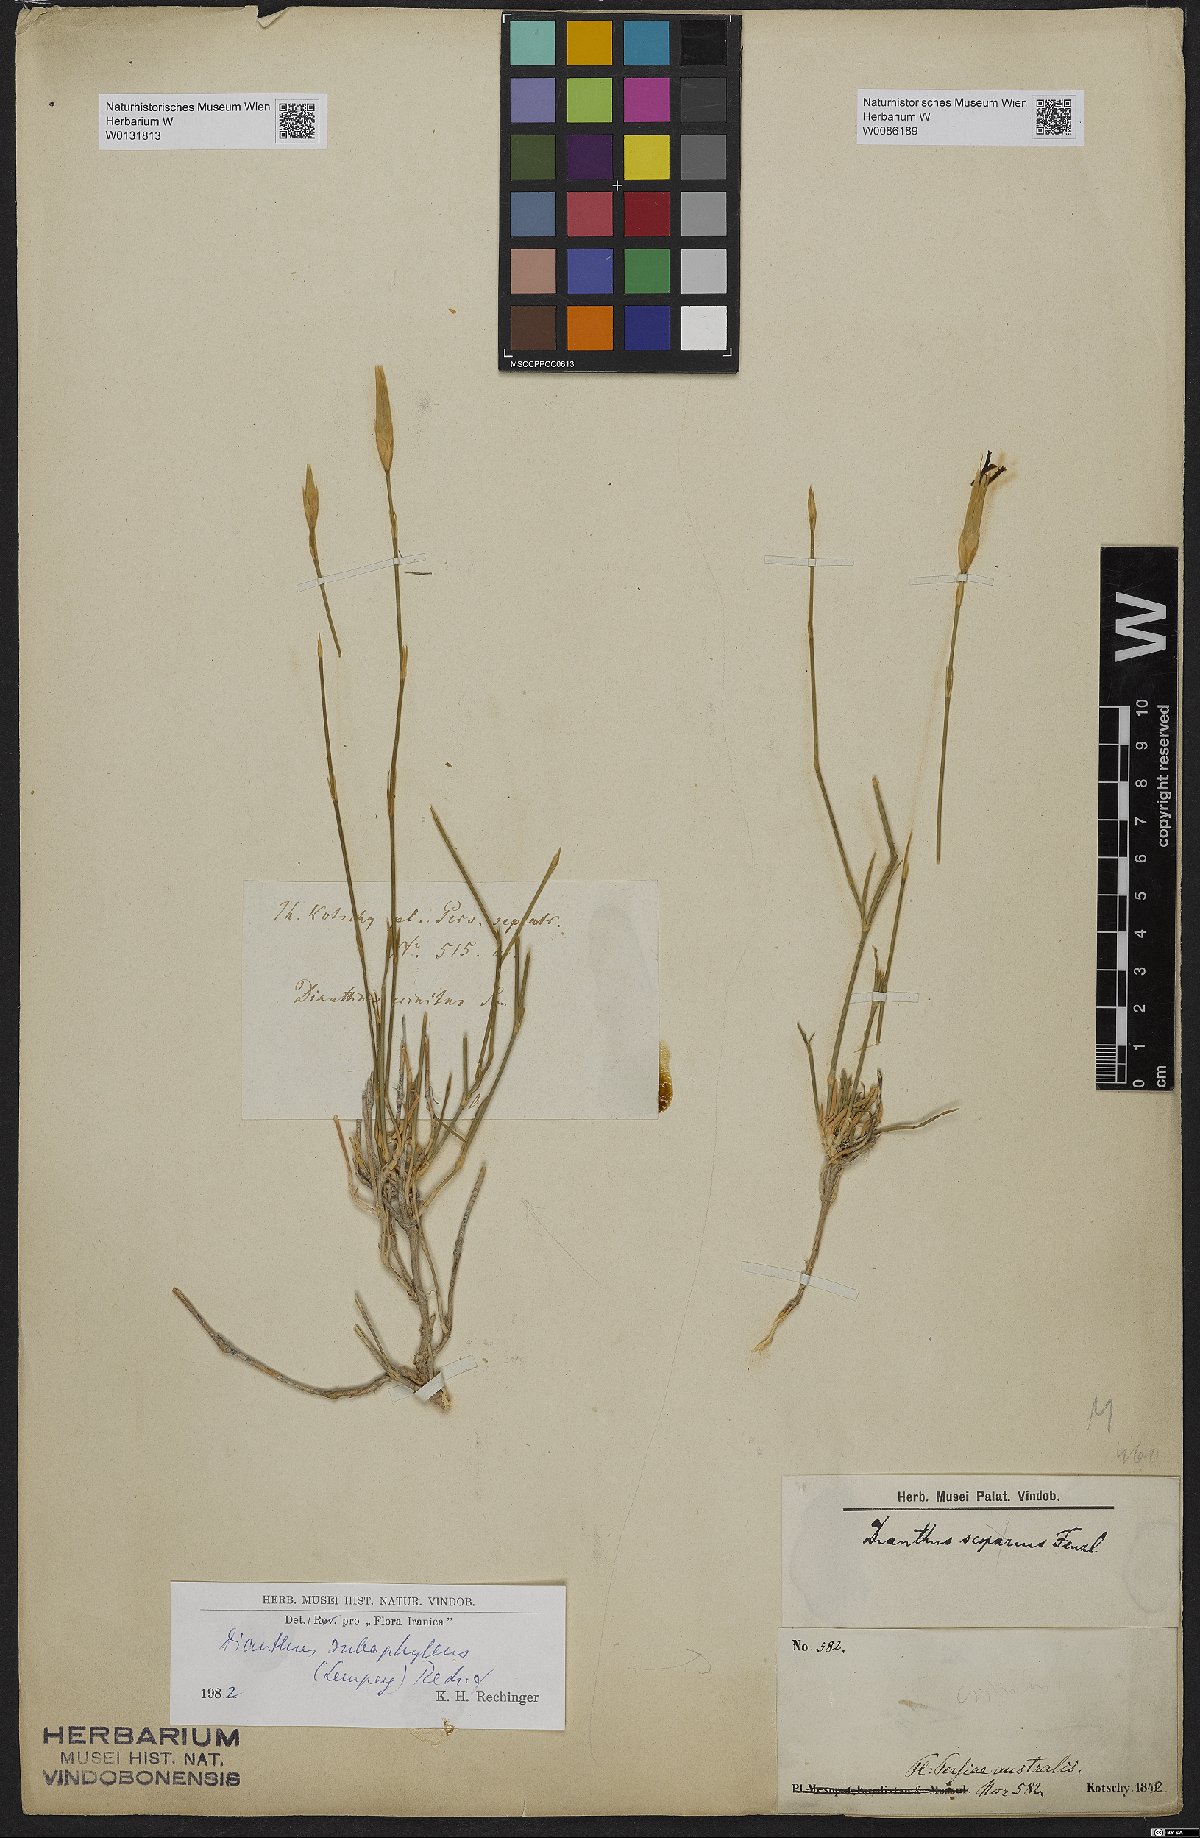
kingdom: Plantae
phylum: Tracheophyta
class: Magnoliopsida
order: Caryophyllales
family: Caryophyllaceae
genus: Dianthus
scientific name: Dianthus subaphyllus
